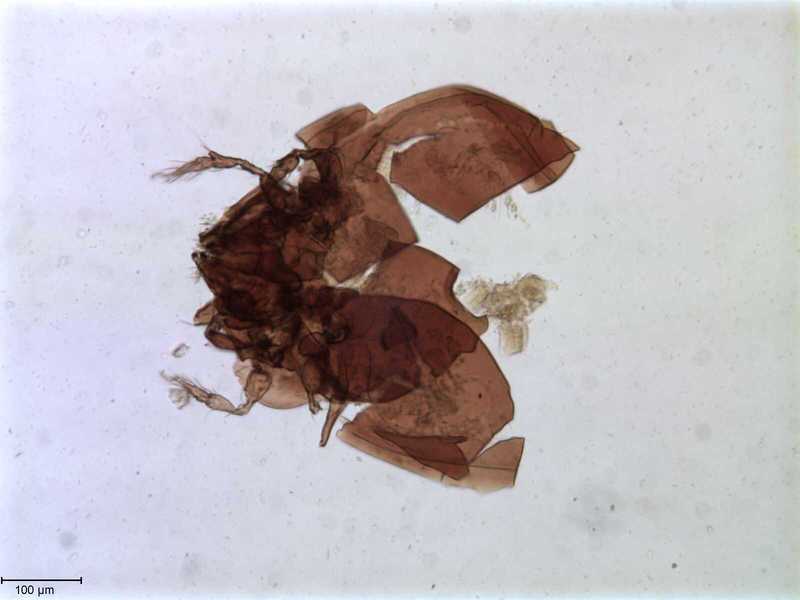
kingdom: Animalia
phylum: Arthropoda
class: Arachnida
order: Sarcoptiformes
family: Tegoribatidae
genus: Plakoribates
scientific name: Plakoribates multicuspidatus
